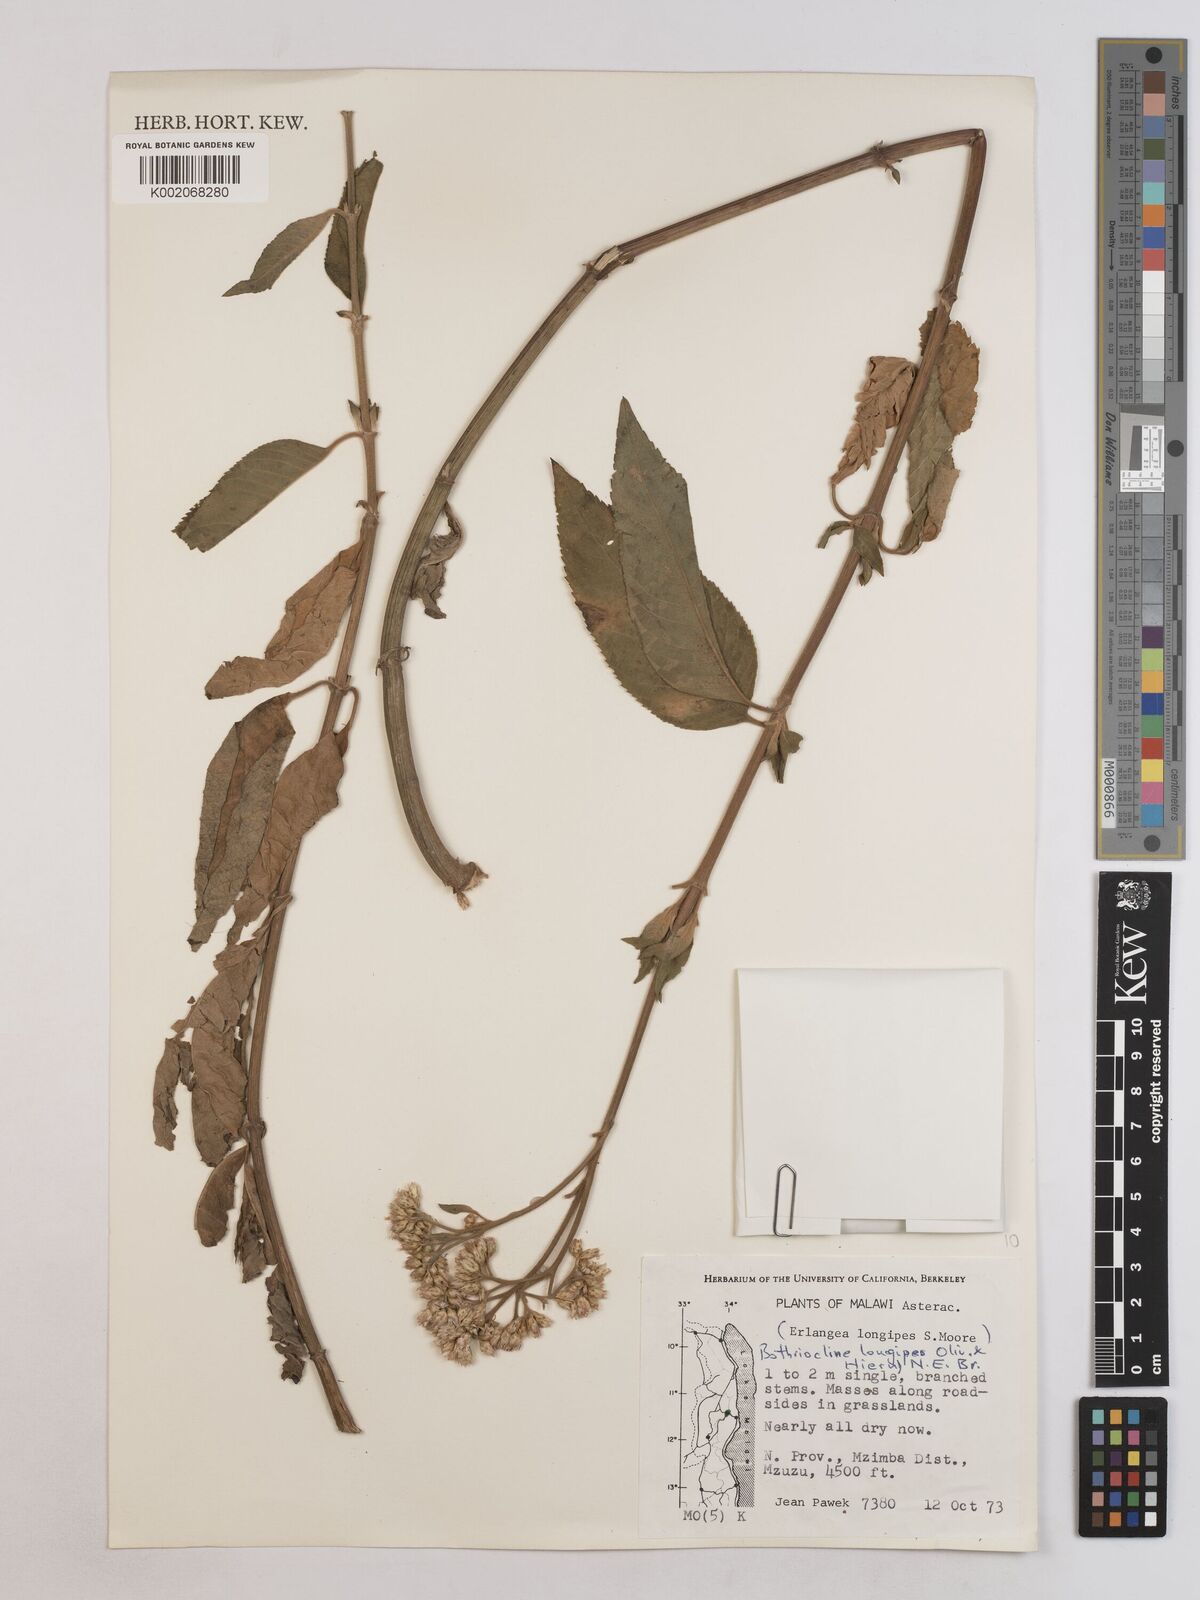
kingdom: Plantae
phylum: Tracheophyta
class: Magnoliopsida
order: Asterales
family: Asteraceae
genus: Bothriocline
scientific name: Bothriocline longipes
